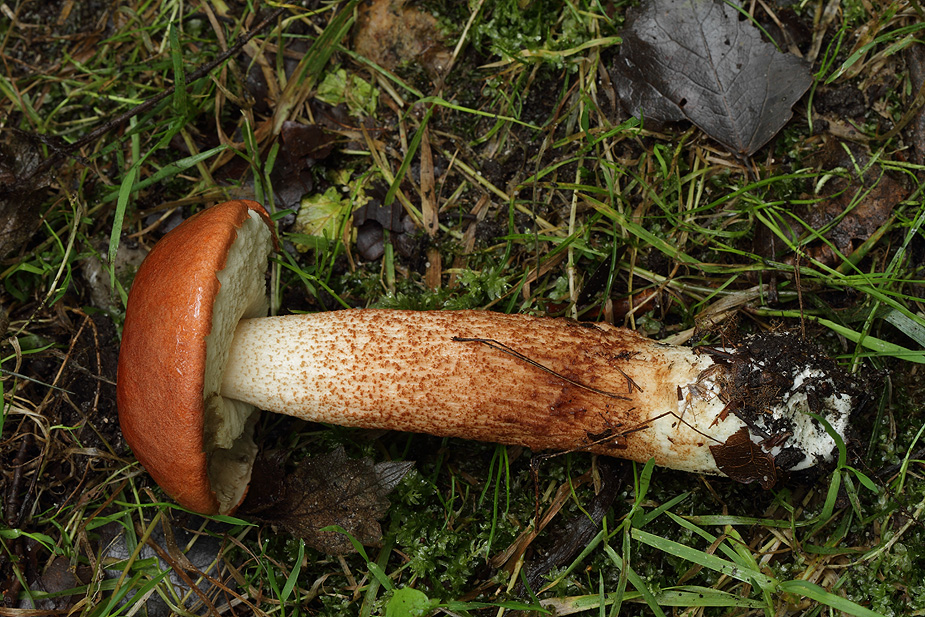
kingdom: Fungi
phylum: Basidiomycota
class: Agaricomycetes
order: Boletales
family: Boletaceae
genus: Leccinum
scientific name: Leccinum albostipitatum
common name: aspe-skælrørhat
